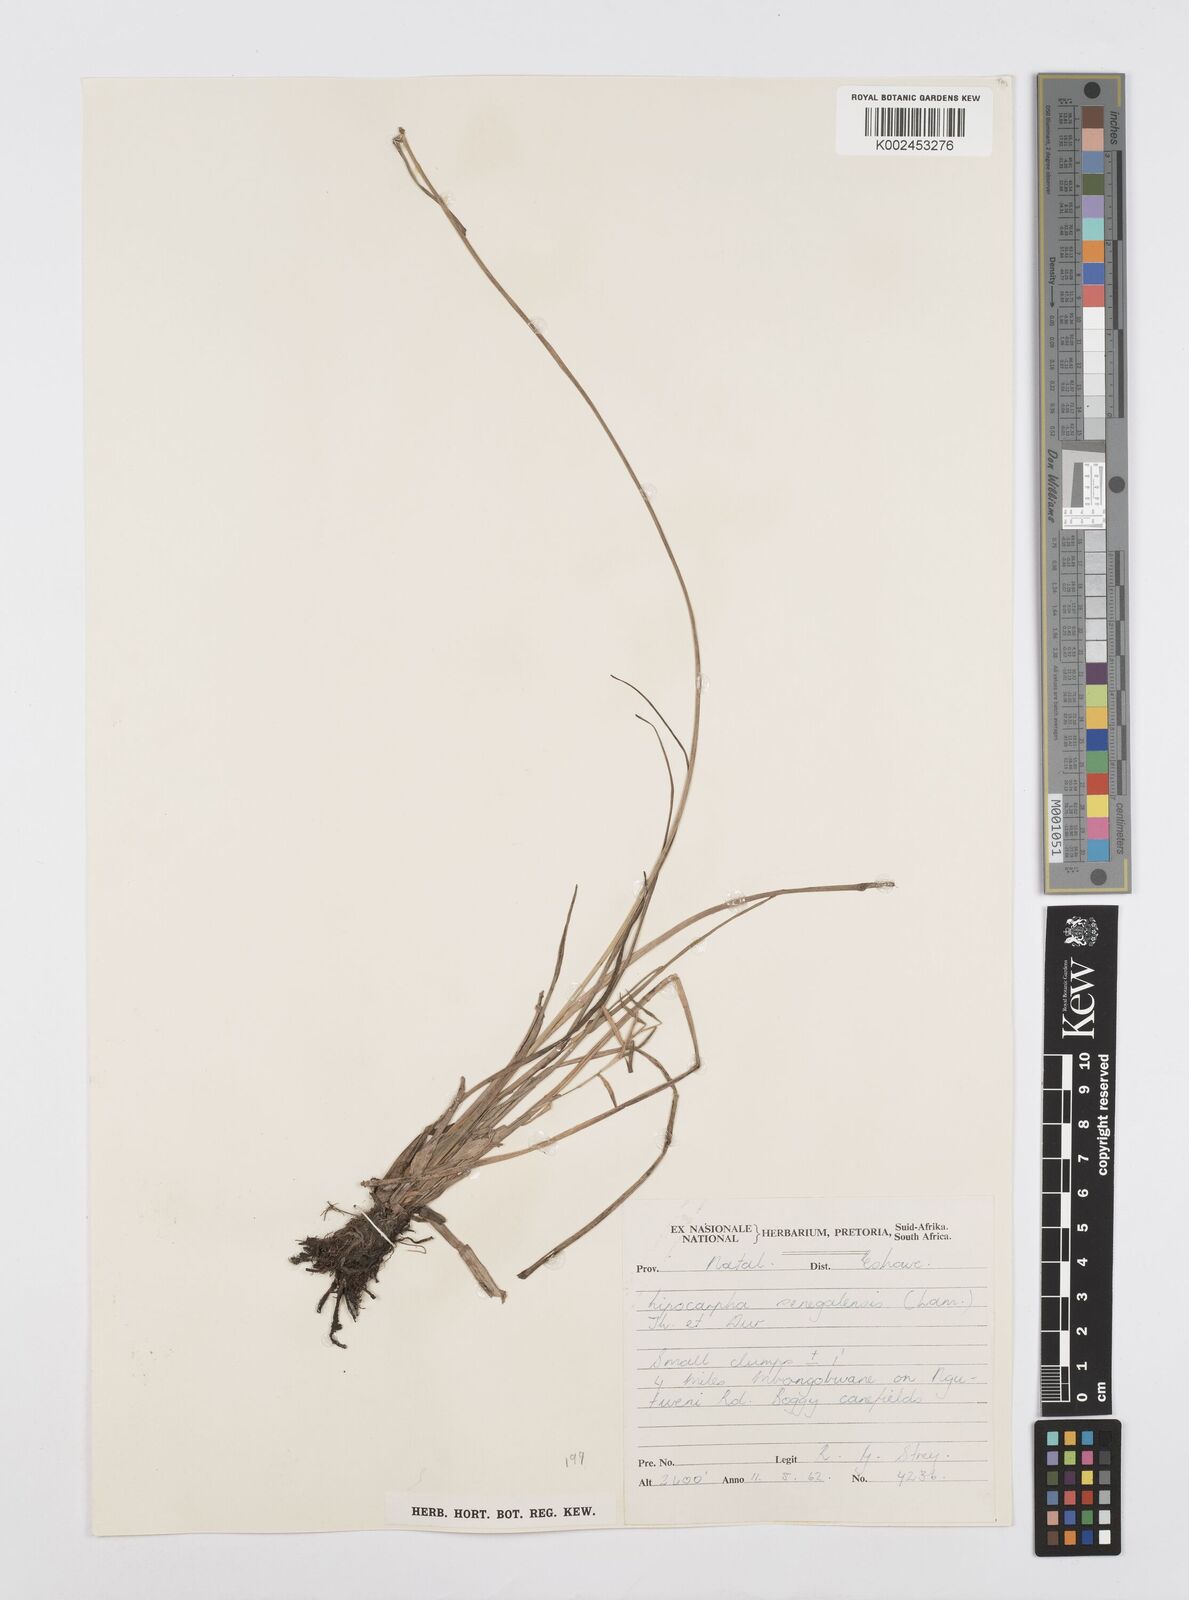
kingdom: Plantae
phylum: Tracheophyta
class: Liliopsida
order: Poales
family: Cyperaceae
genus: Cyperus
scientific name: Cyperus albescens
